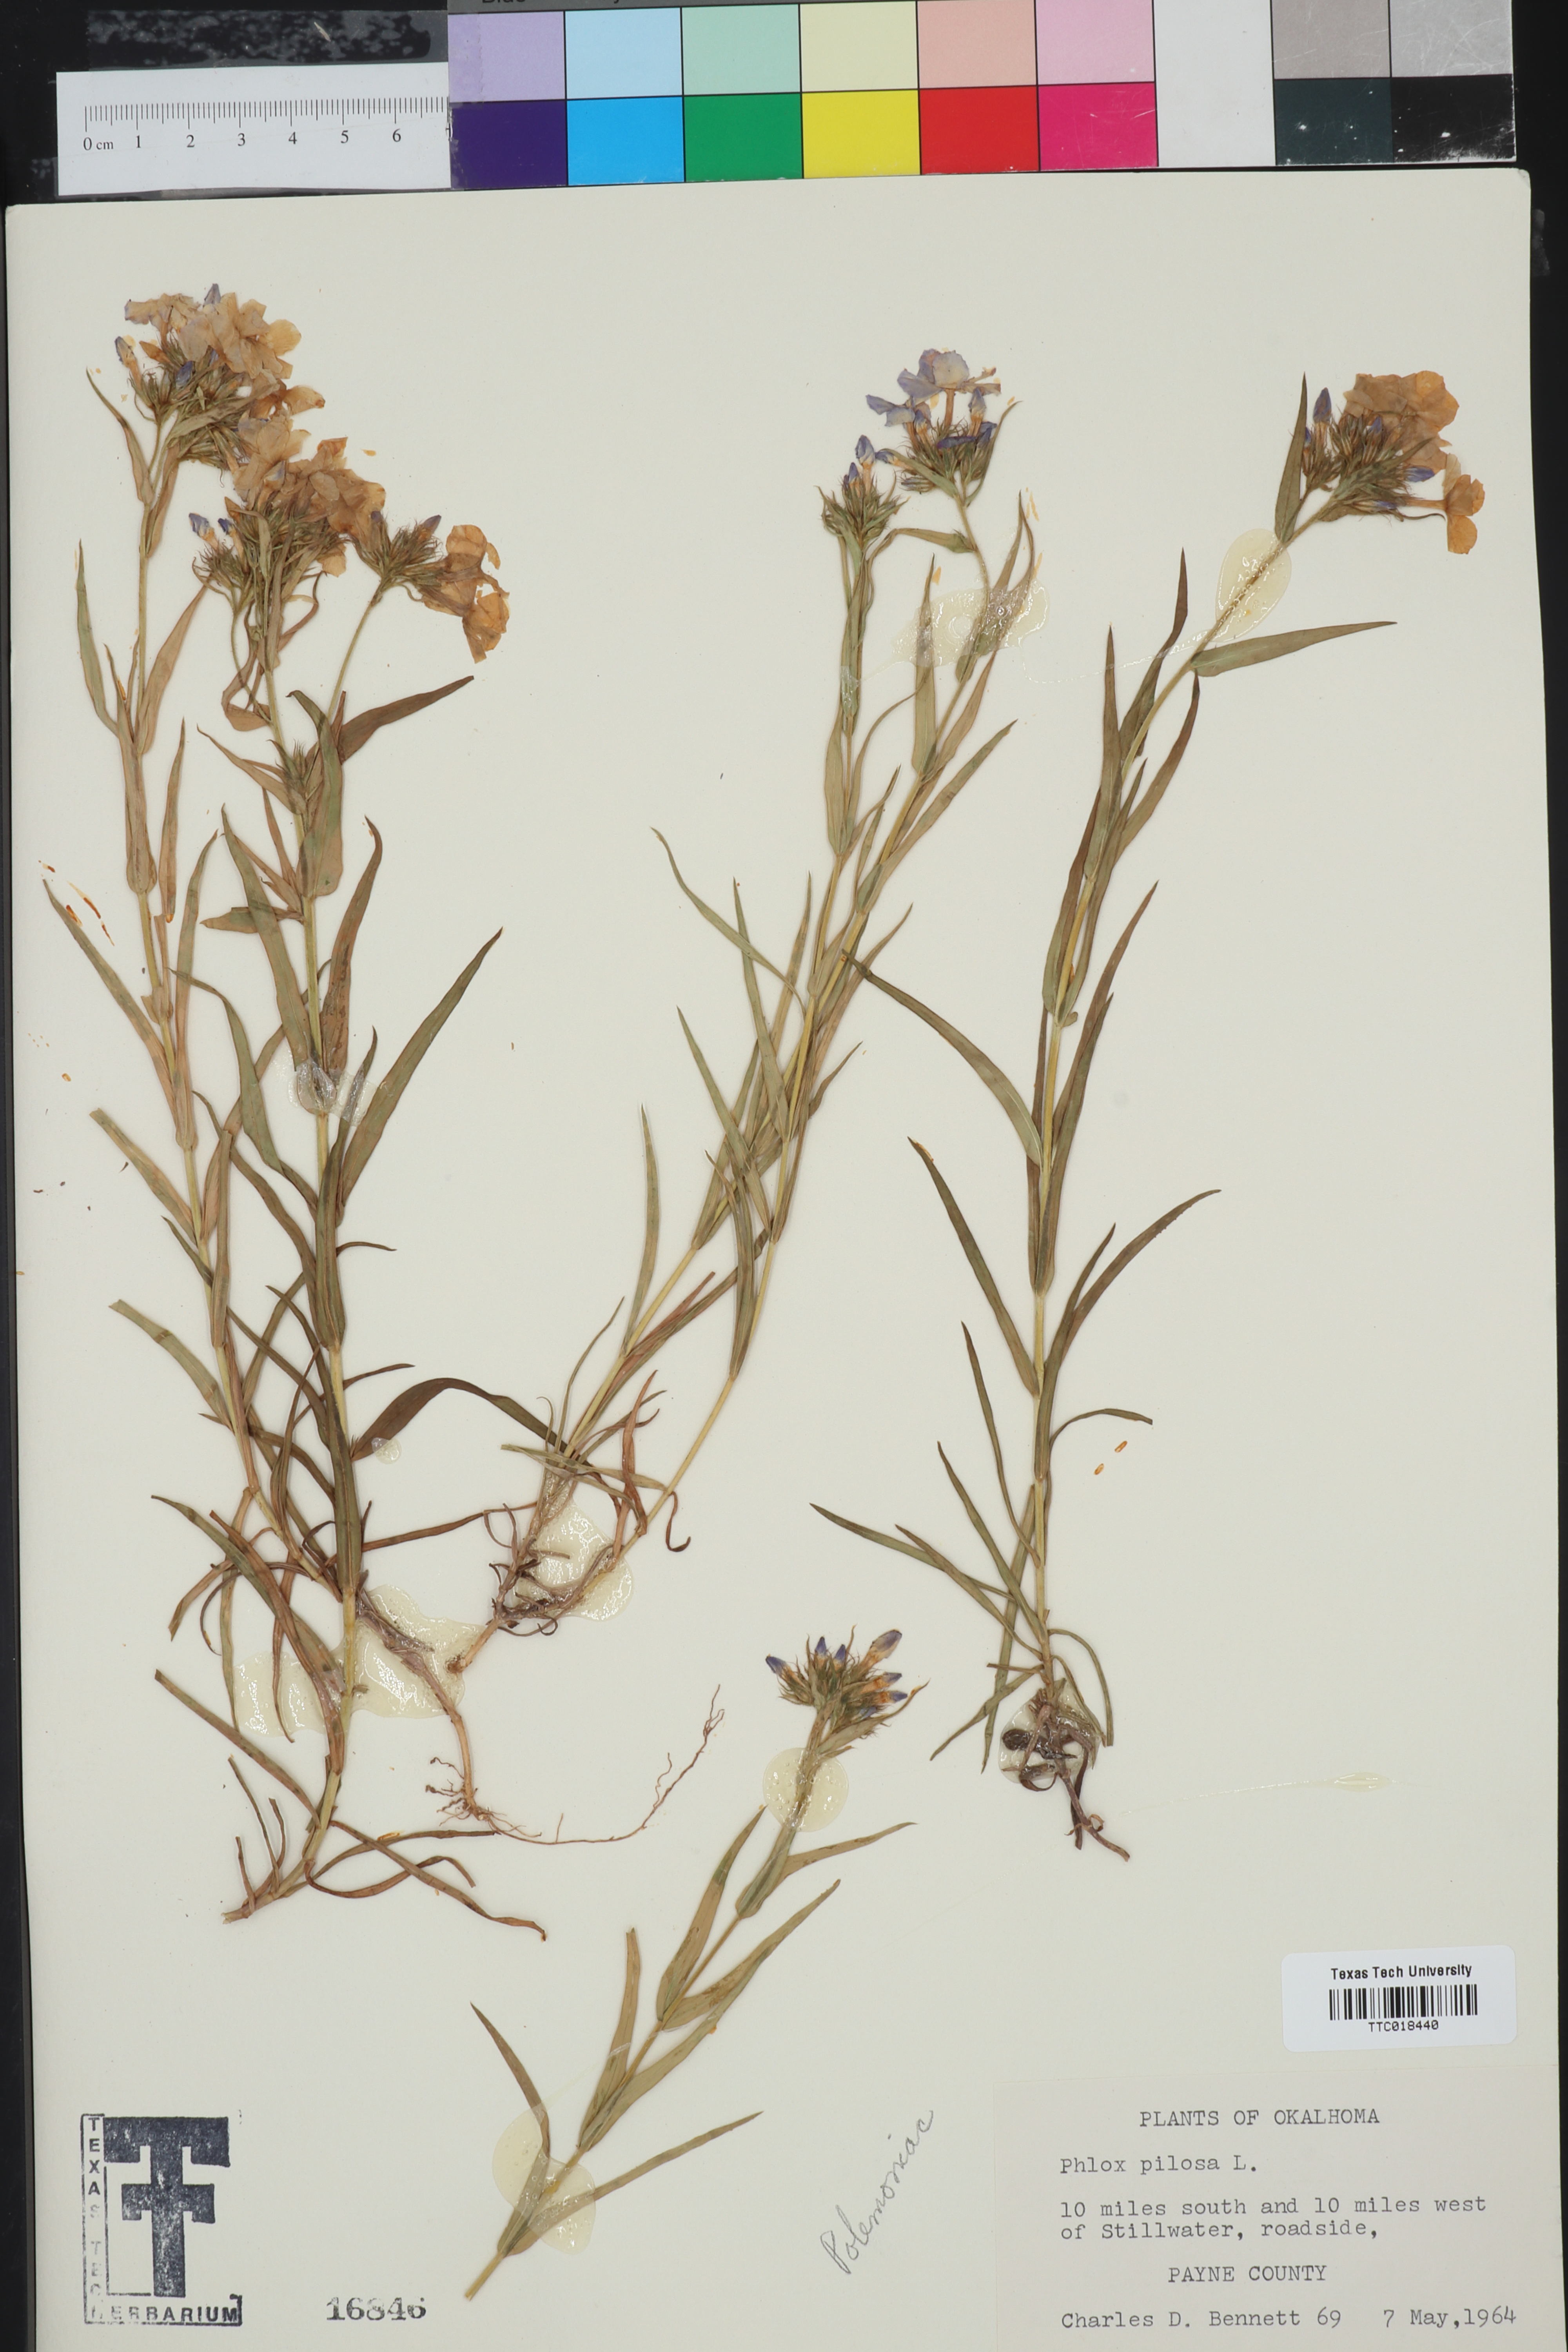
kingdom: Plantae
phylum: Tracheophyta
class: Magnoliopsida
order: Ericales
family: Polemoniaceae
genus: Phlox
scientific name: Phlox pilosa
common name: Prairie phlox
